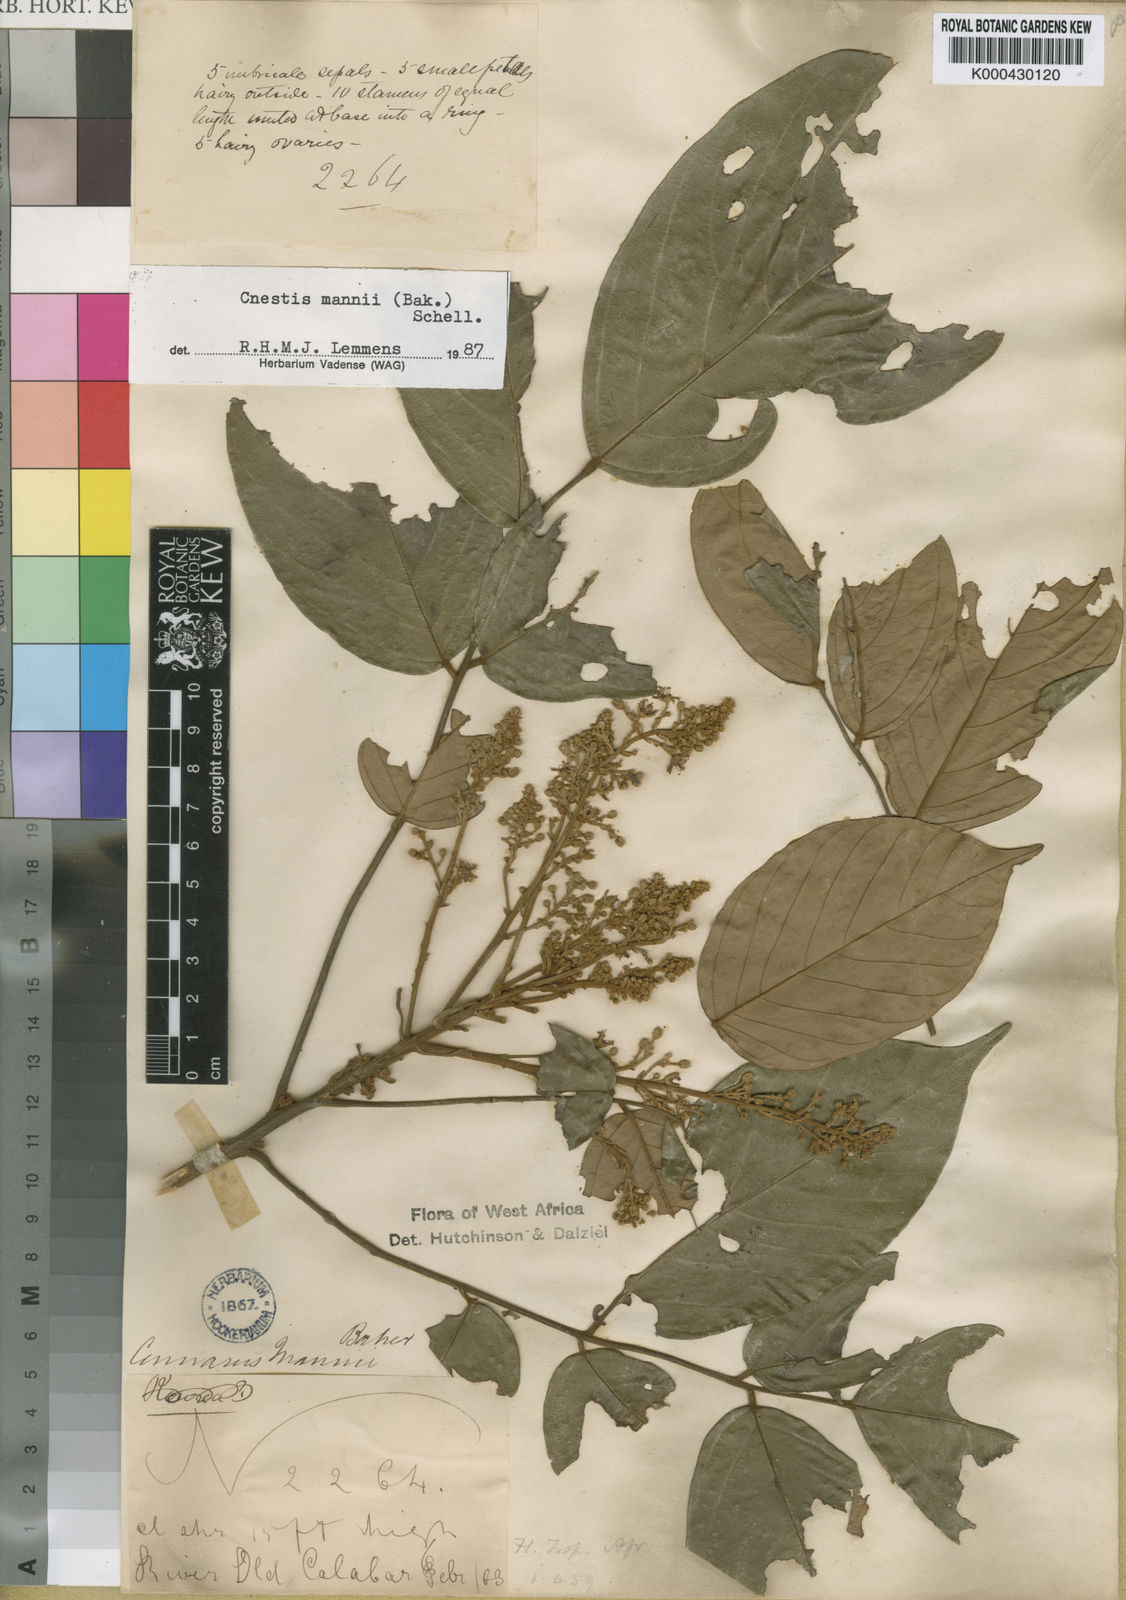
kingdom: Plantae
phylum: Tracheophyta
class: Magnoliopsida
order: Oxalidales
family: Connaraceae
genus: Cnestis
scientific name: Cnestis mannii
